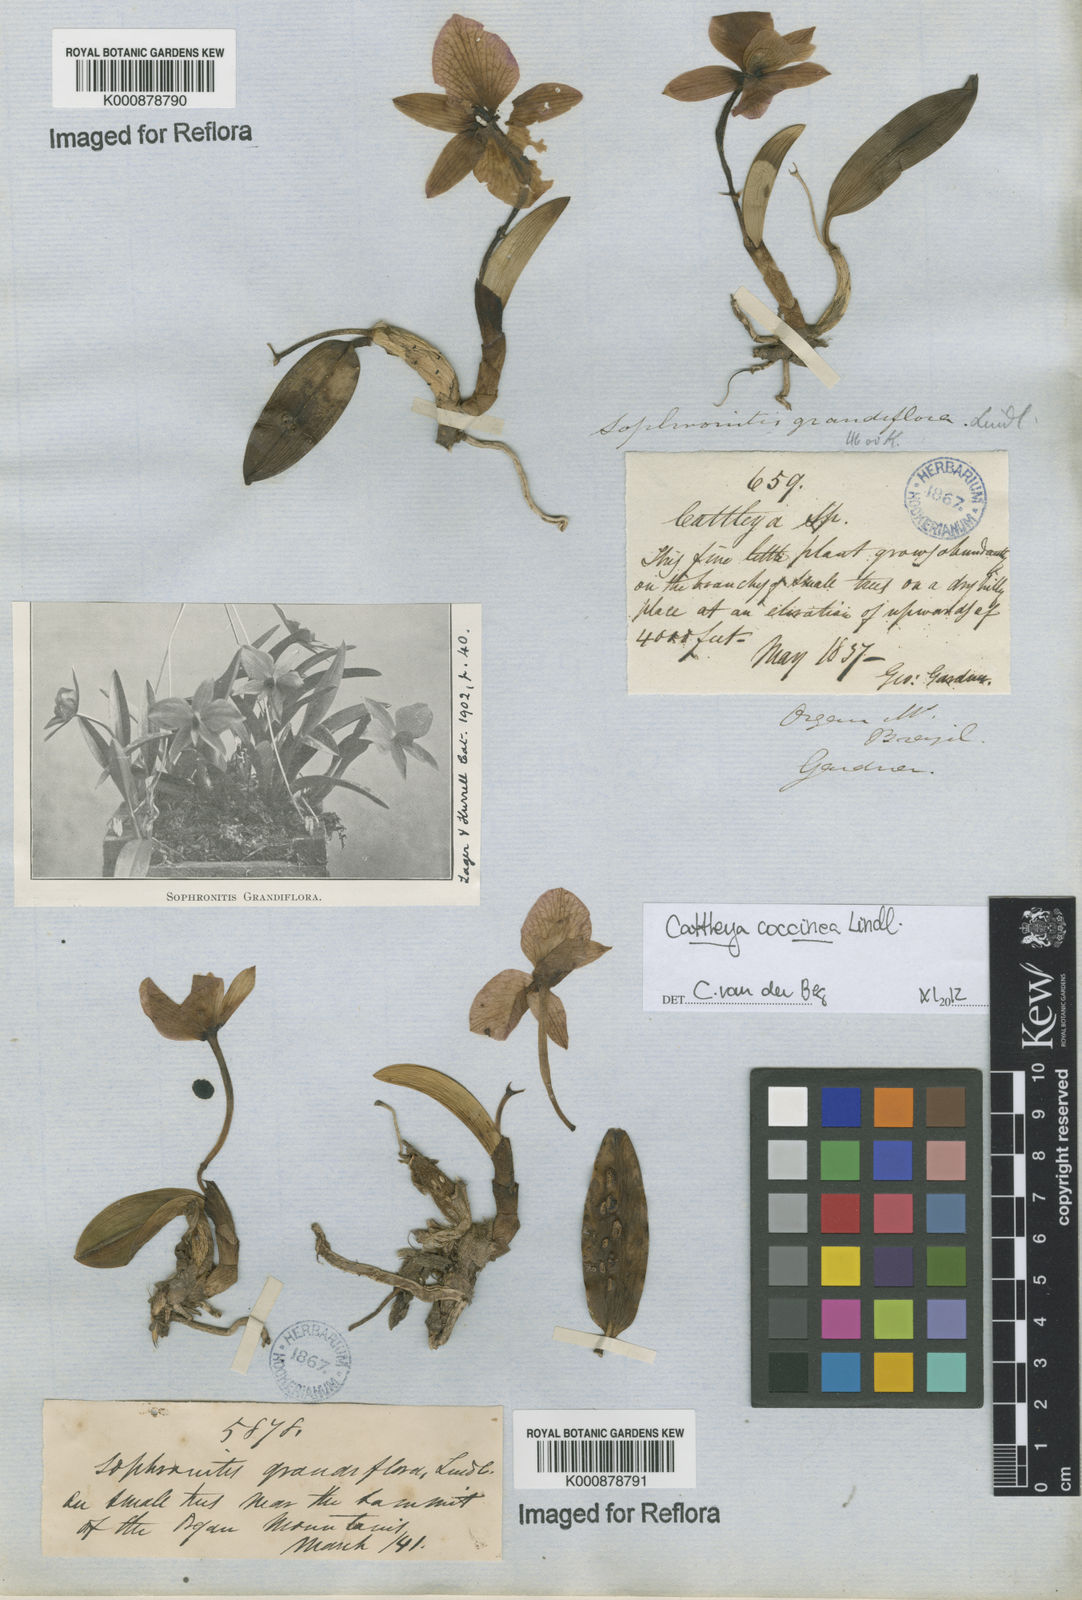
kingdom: Plantae
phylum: Tracheophyta
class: Liliopsida
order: Asparagales
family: Orchidaceae
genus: Cattleya
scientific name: Cattleya coccinea
